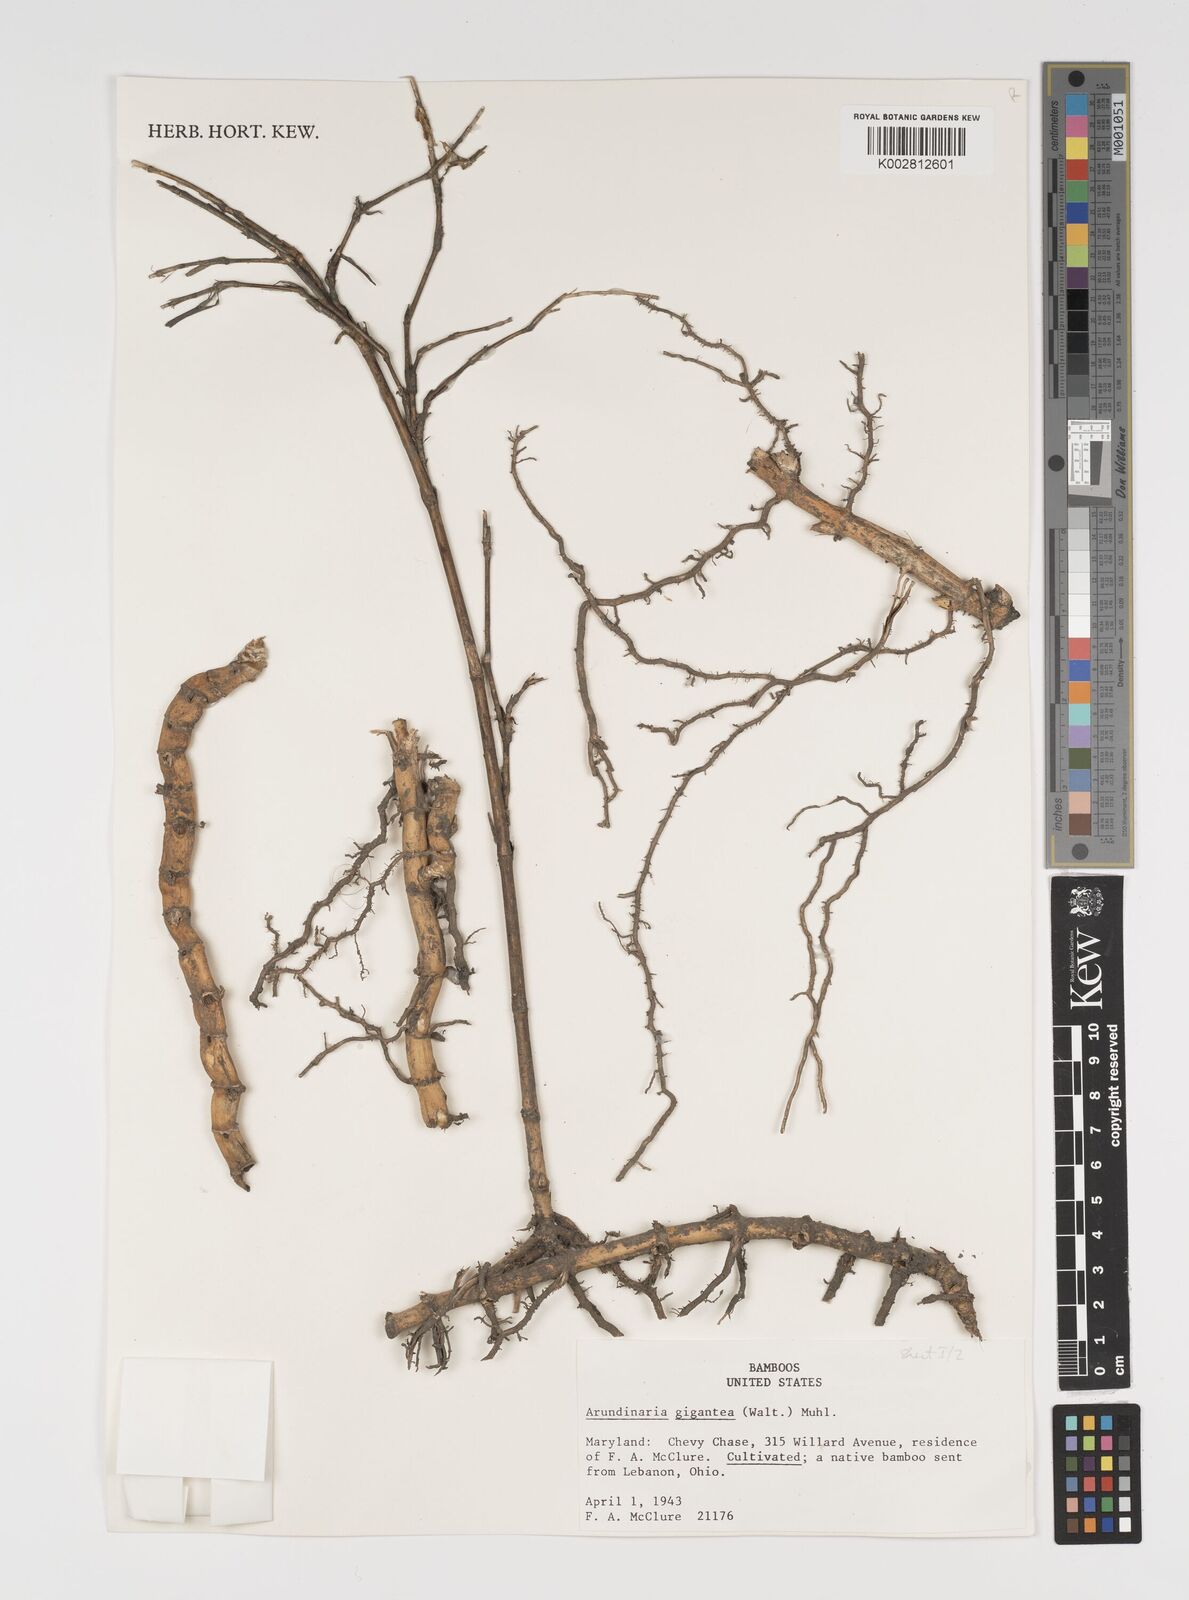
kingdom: Plantae
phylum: Tracheophyta
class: Liliopsida
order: Poales
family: Poaceae
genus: Arundinaria
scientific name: Arundinaria gigantea
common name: Giant cane
